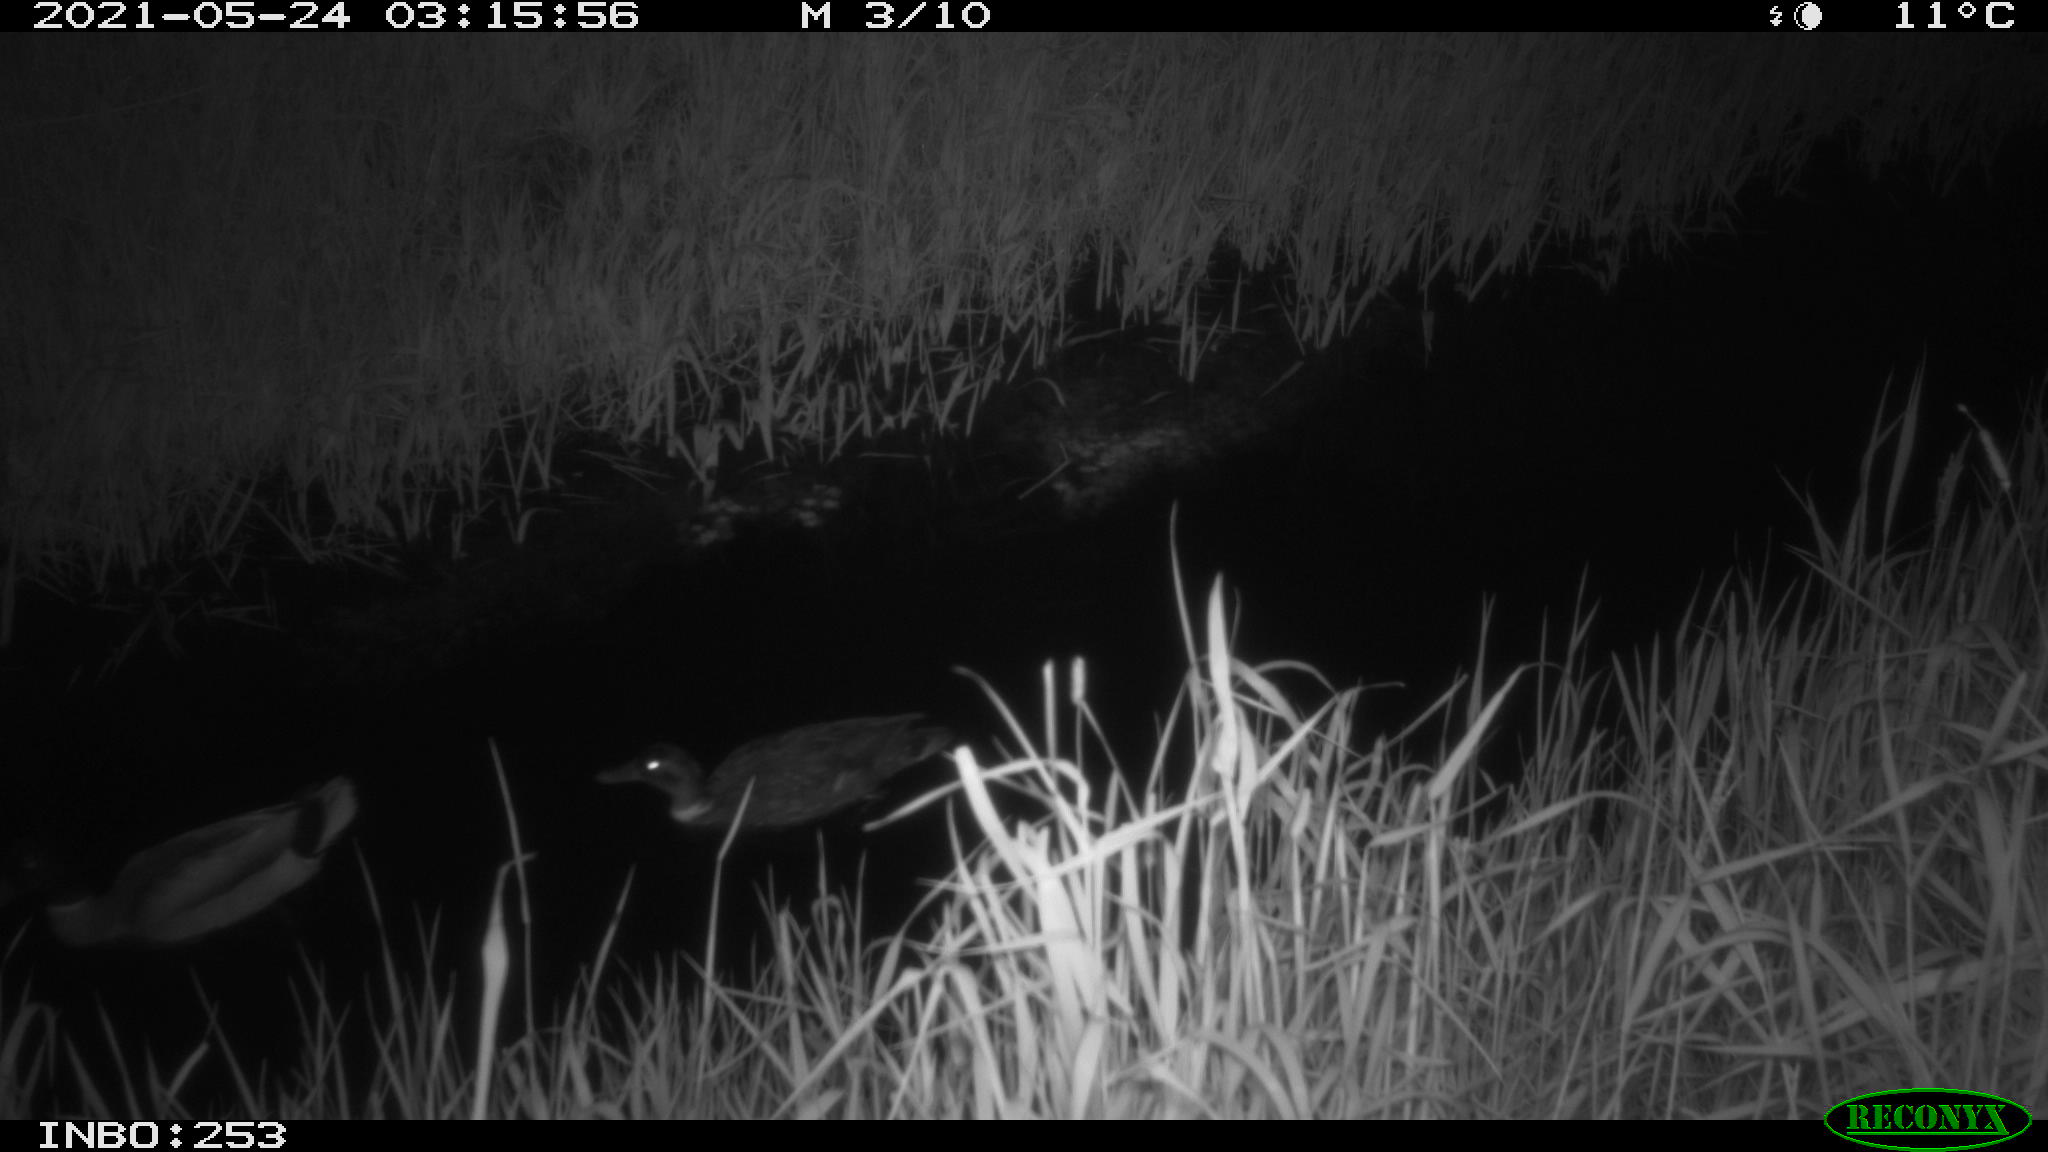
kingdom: Animalia
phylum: Chordata
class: Aves
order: Anseriformes
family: Anatidae
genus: Anas
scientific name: Anas platyrhynchos
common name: Mallard
